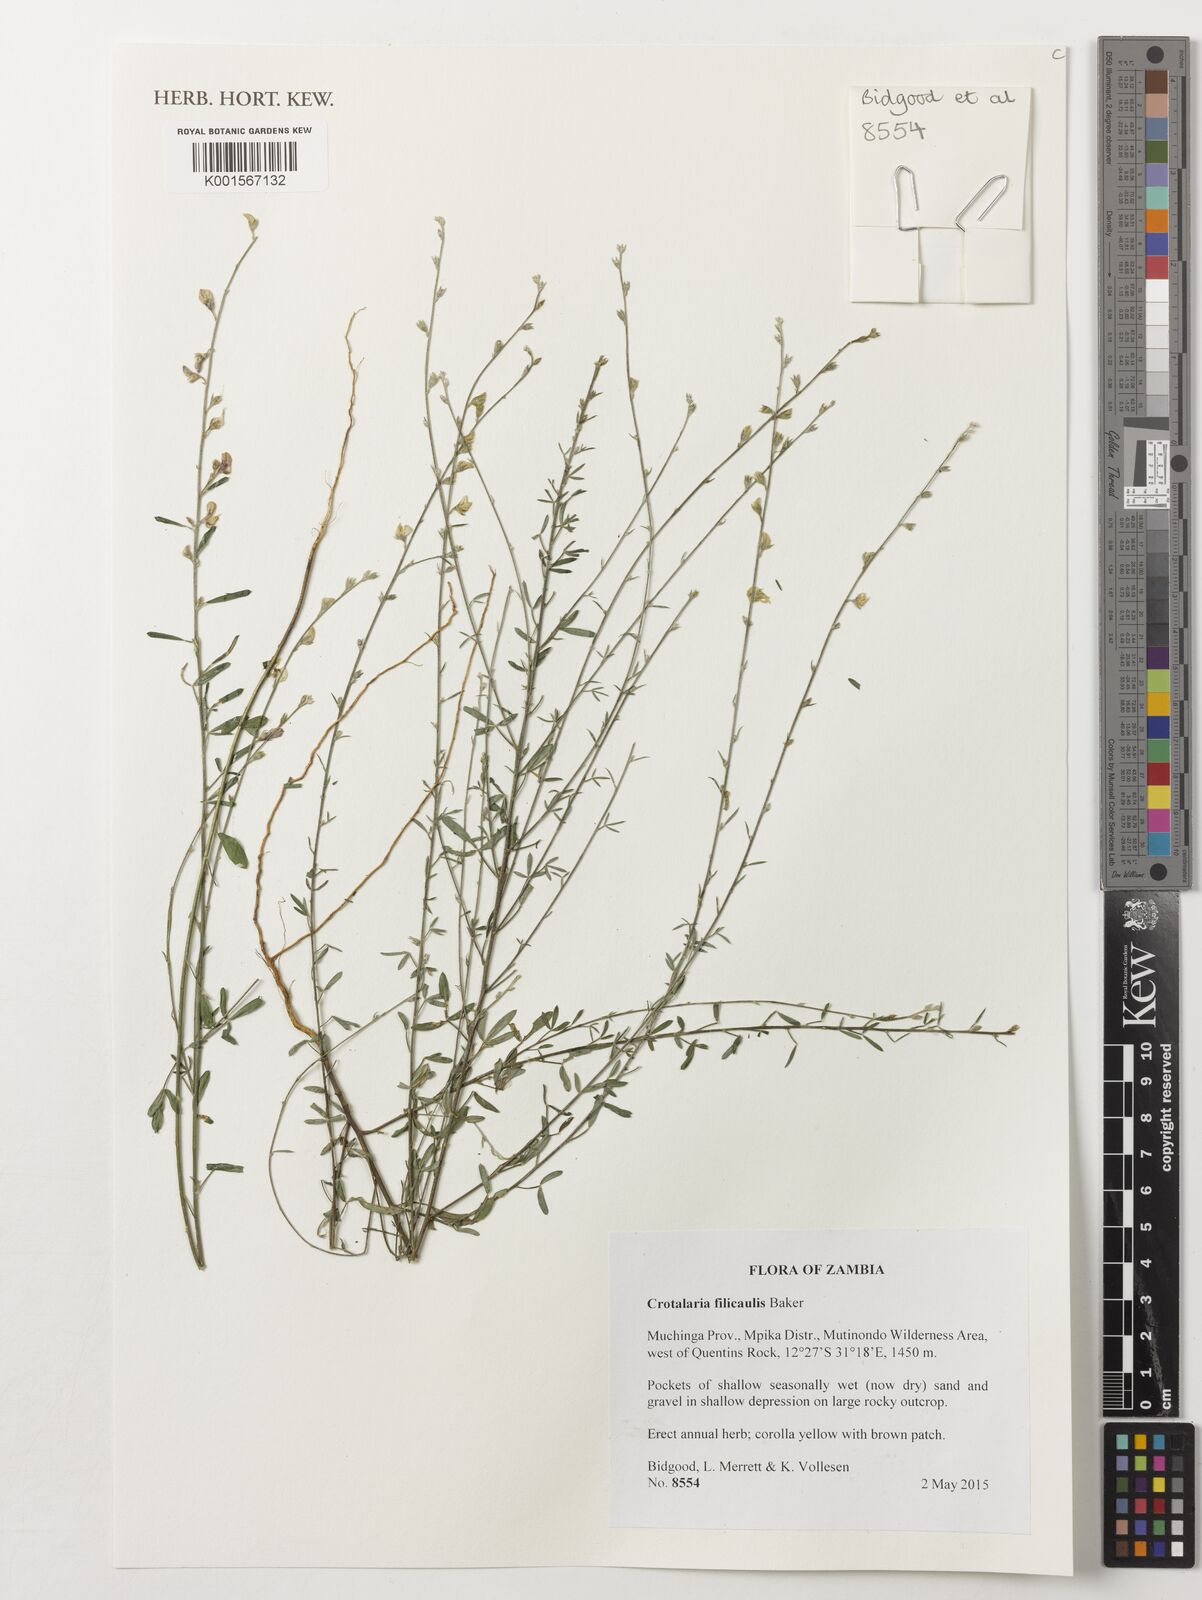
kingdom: Plantae
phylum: Tracheophyta
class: Magnoliopsida
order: Fabales
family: Fabaceae
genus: Crotalaria
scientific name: Crotalaria filicaulis
